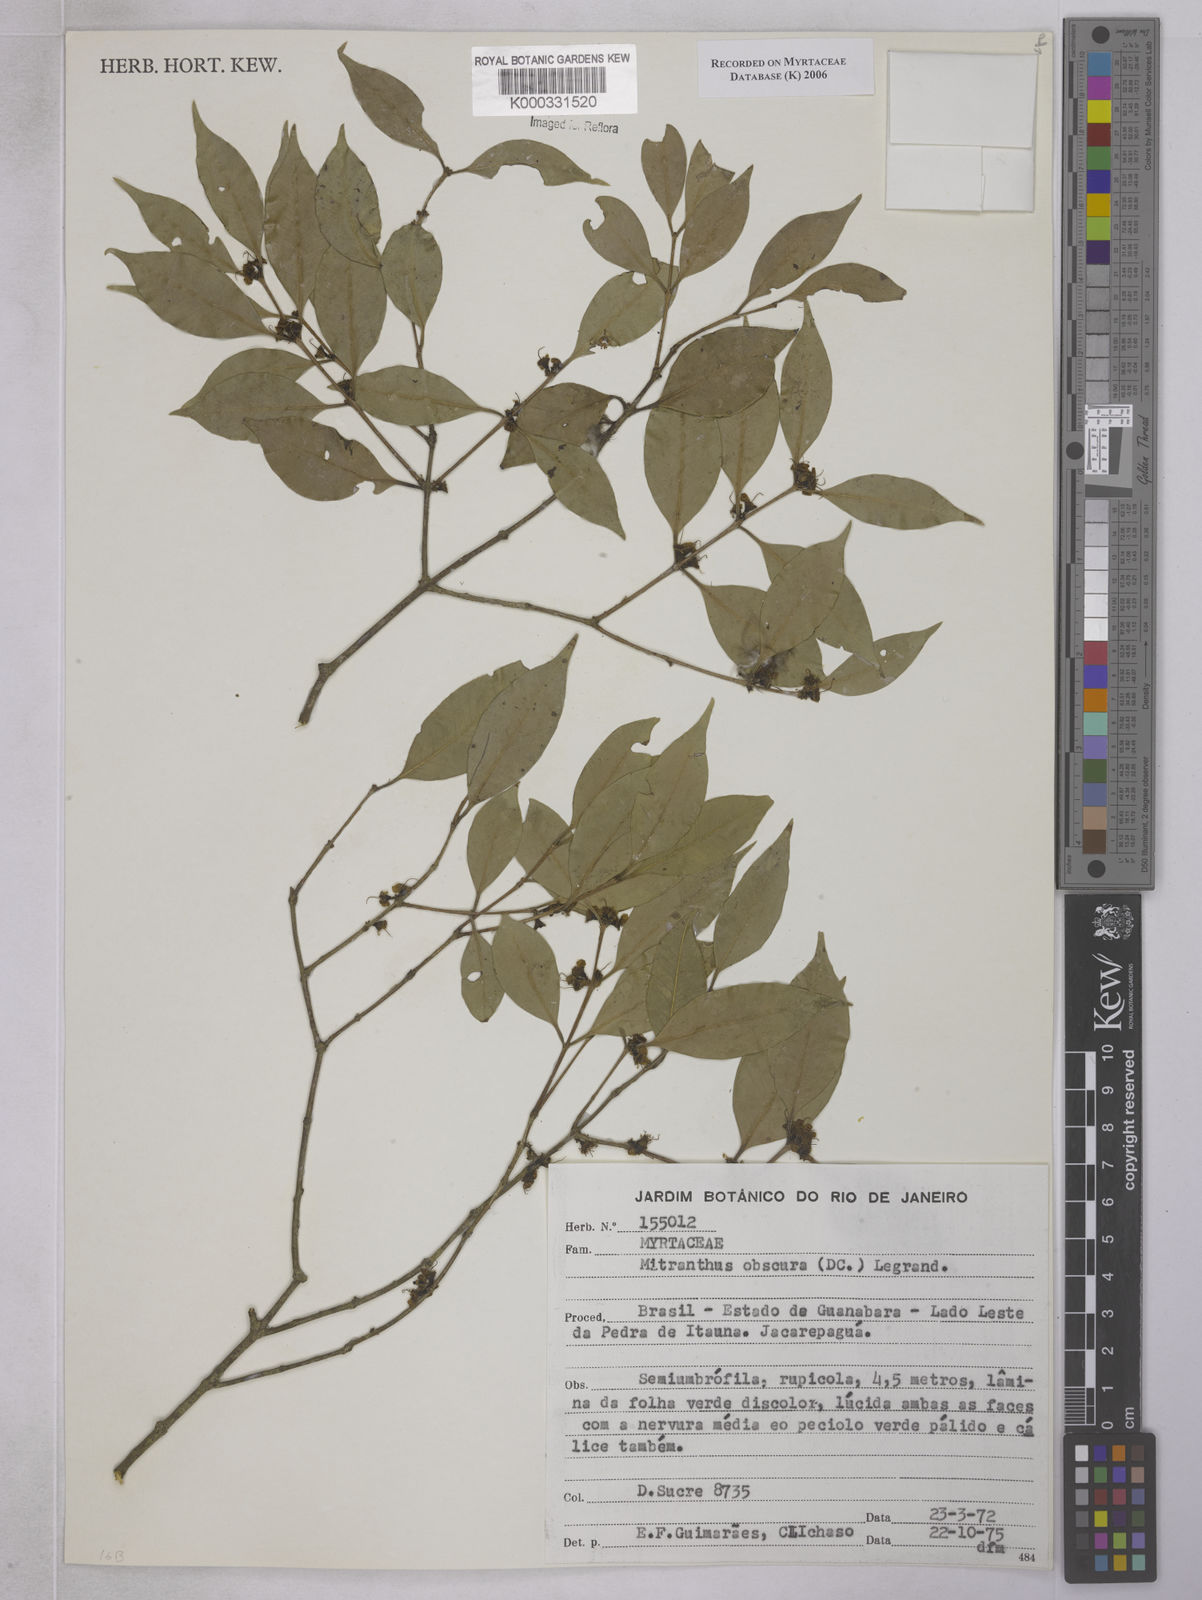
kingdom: Plantae
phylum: Tracheophyta
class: Magnoliopsida
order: Myrtales
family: Myrtaceae
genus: Neomitranthes
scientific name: Neomitranthes obscura
